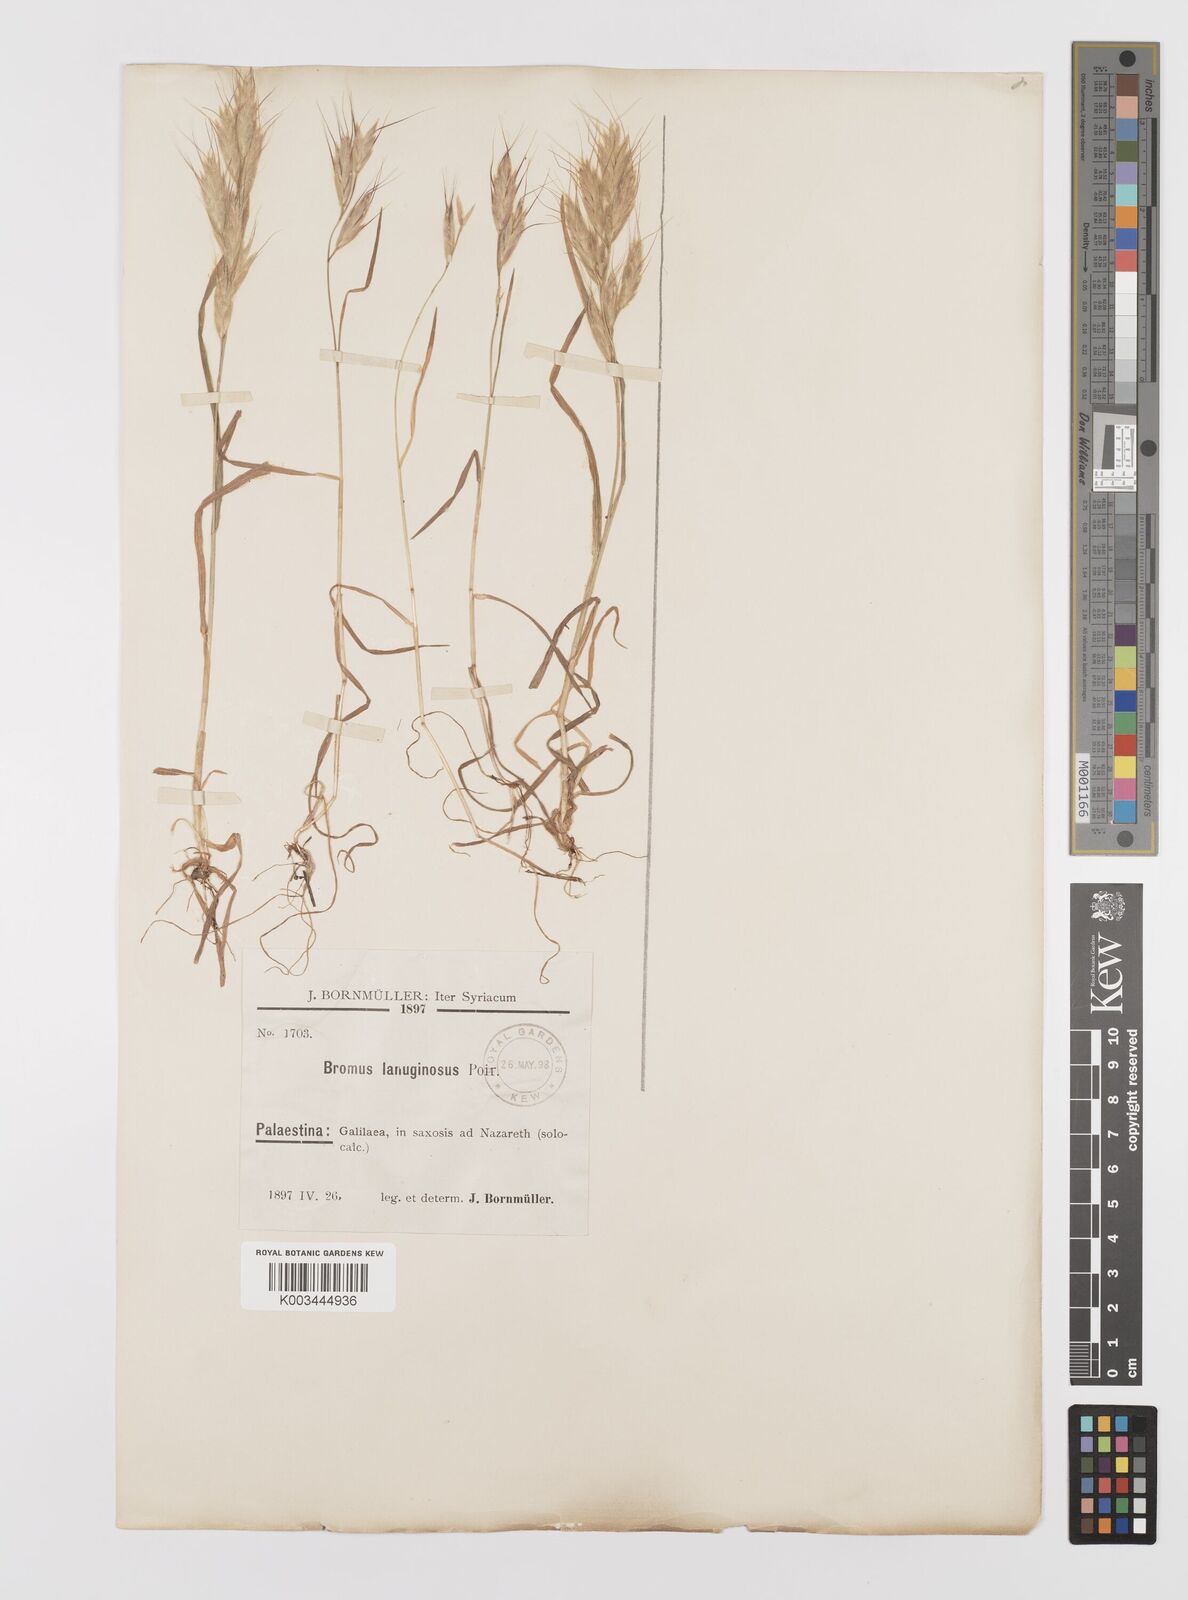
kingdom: Plantae
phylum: Tracheophyta
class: Liliopsida
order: Poales
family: Poaceae
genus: Bromus
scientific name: Bromus lanceolatus
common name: Mediterranean brome
